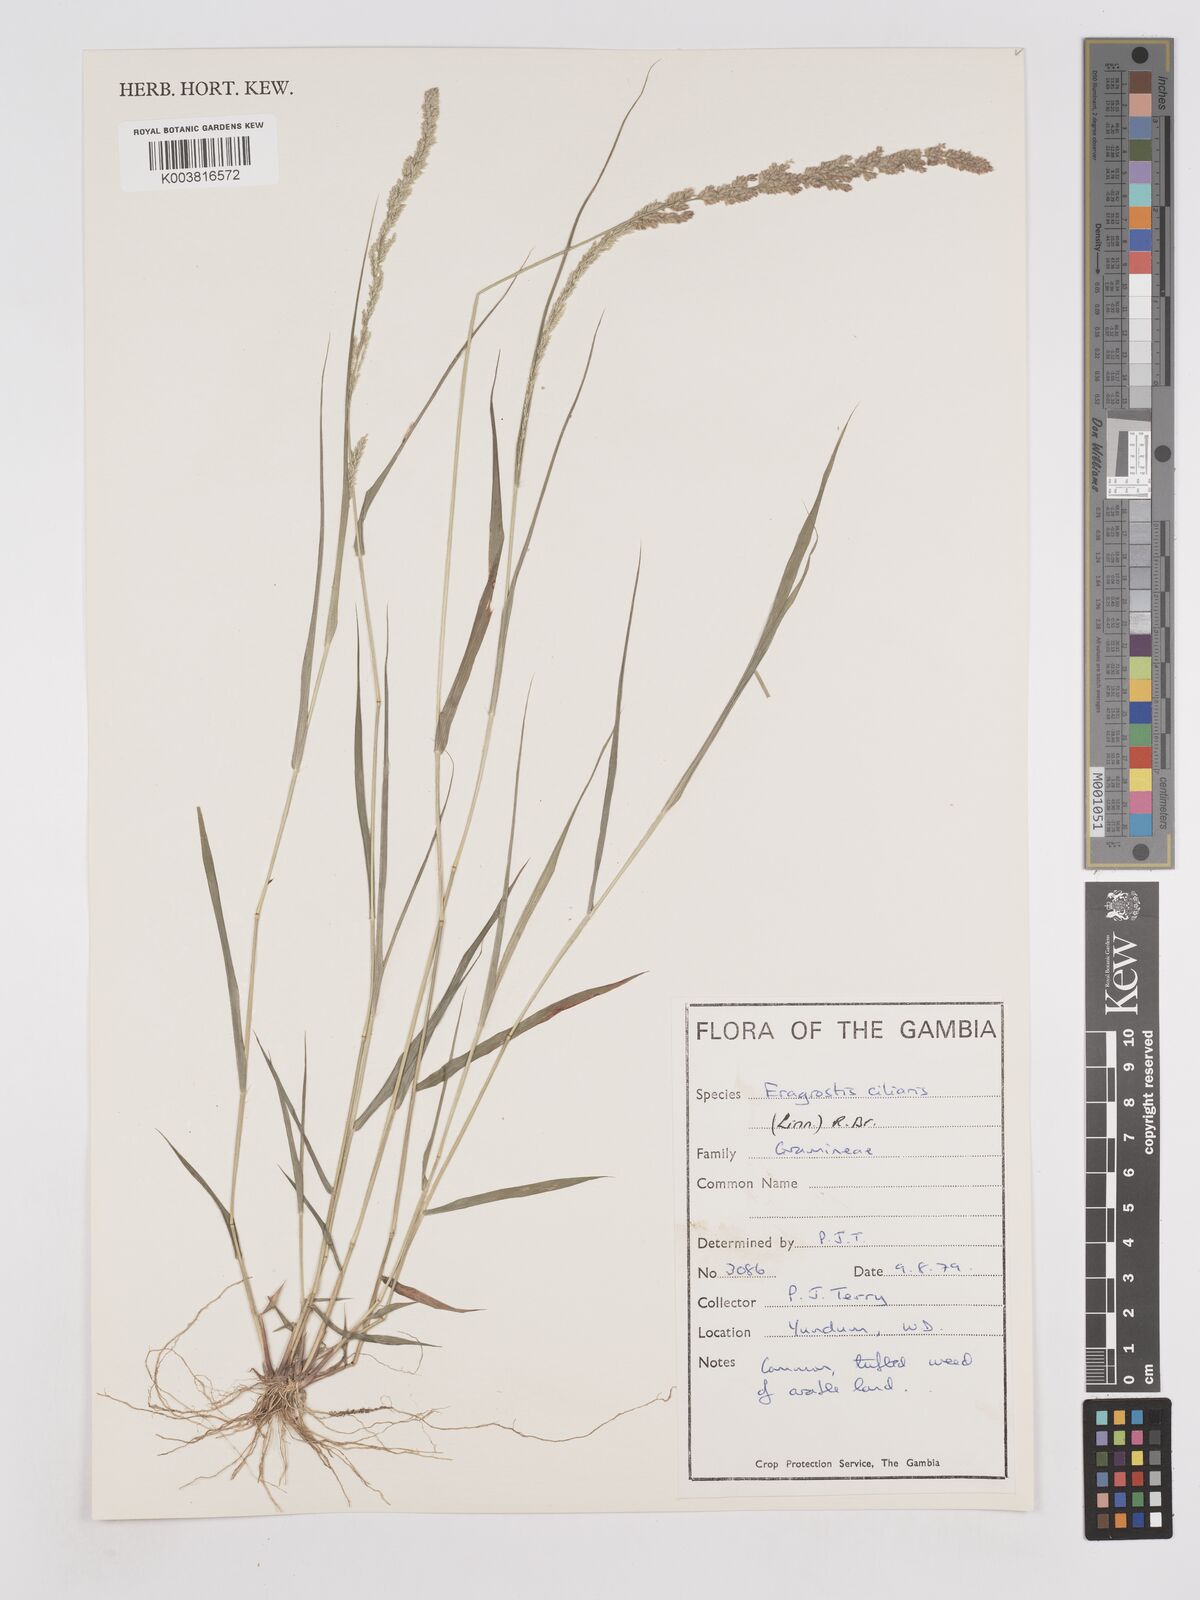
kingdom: Plantae
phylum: Tracheophyta
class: Liliopsida
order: Poales
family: Poaceae
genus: Eragrostis
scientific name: Eragrostis ciliaris
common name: Gophertail lovegrass
